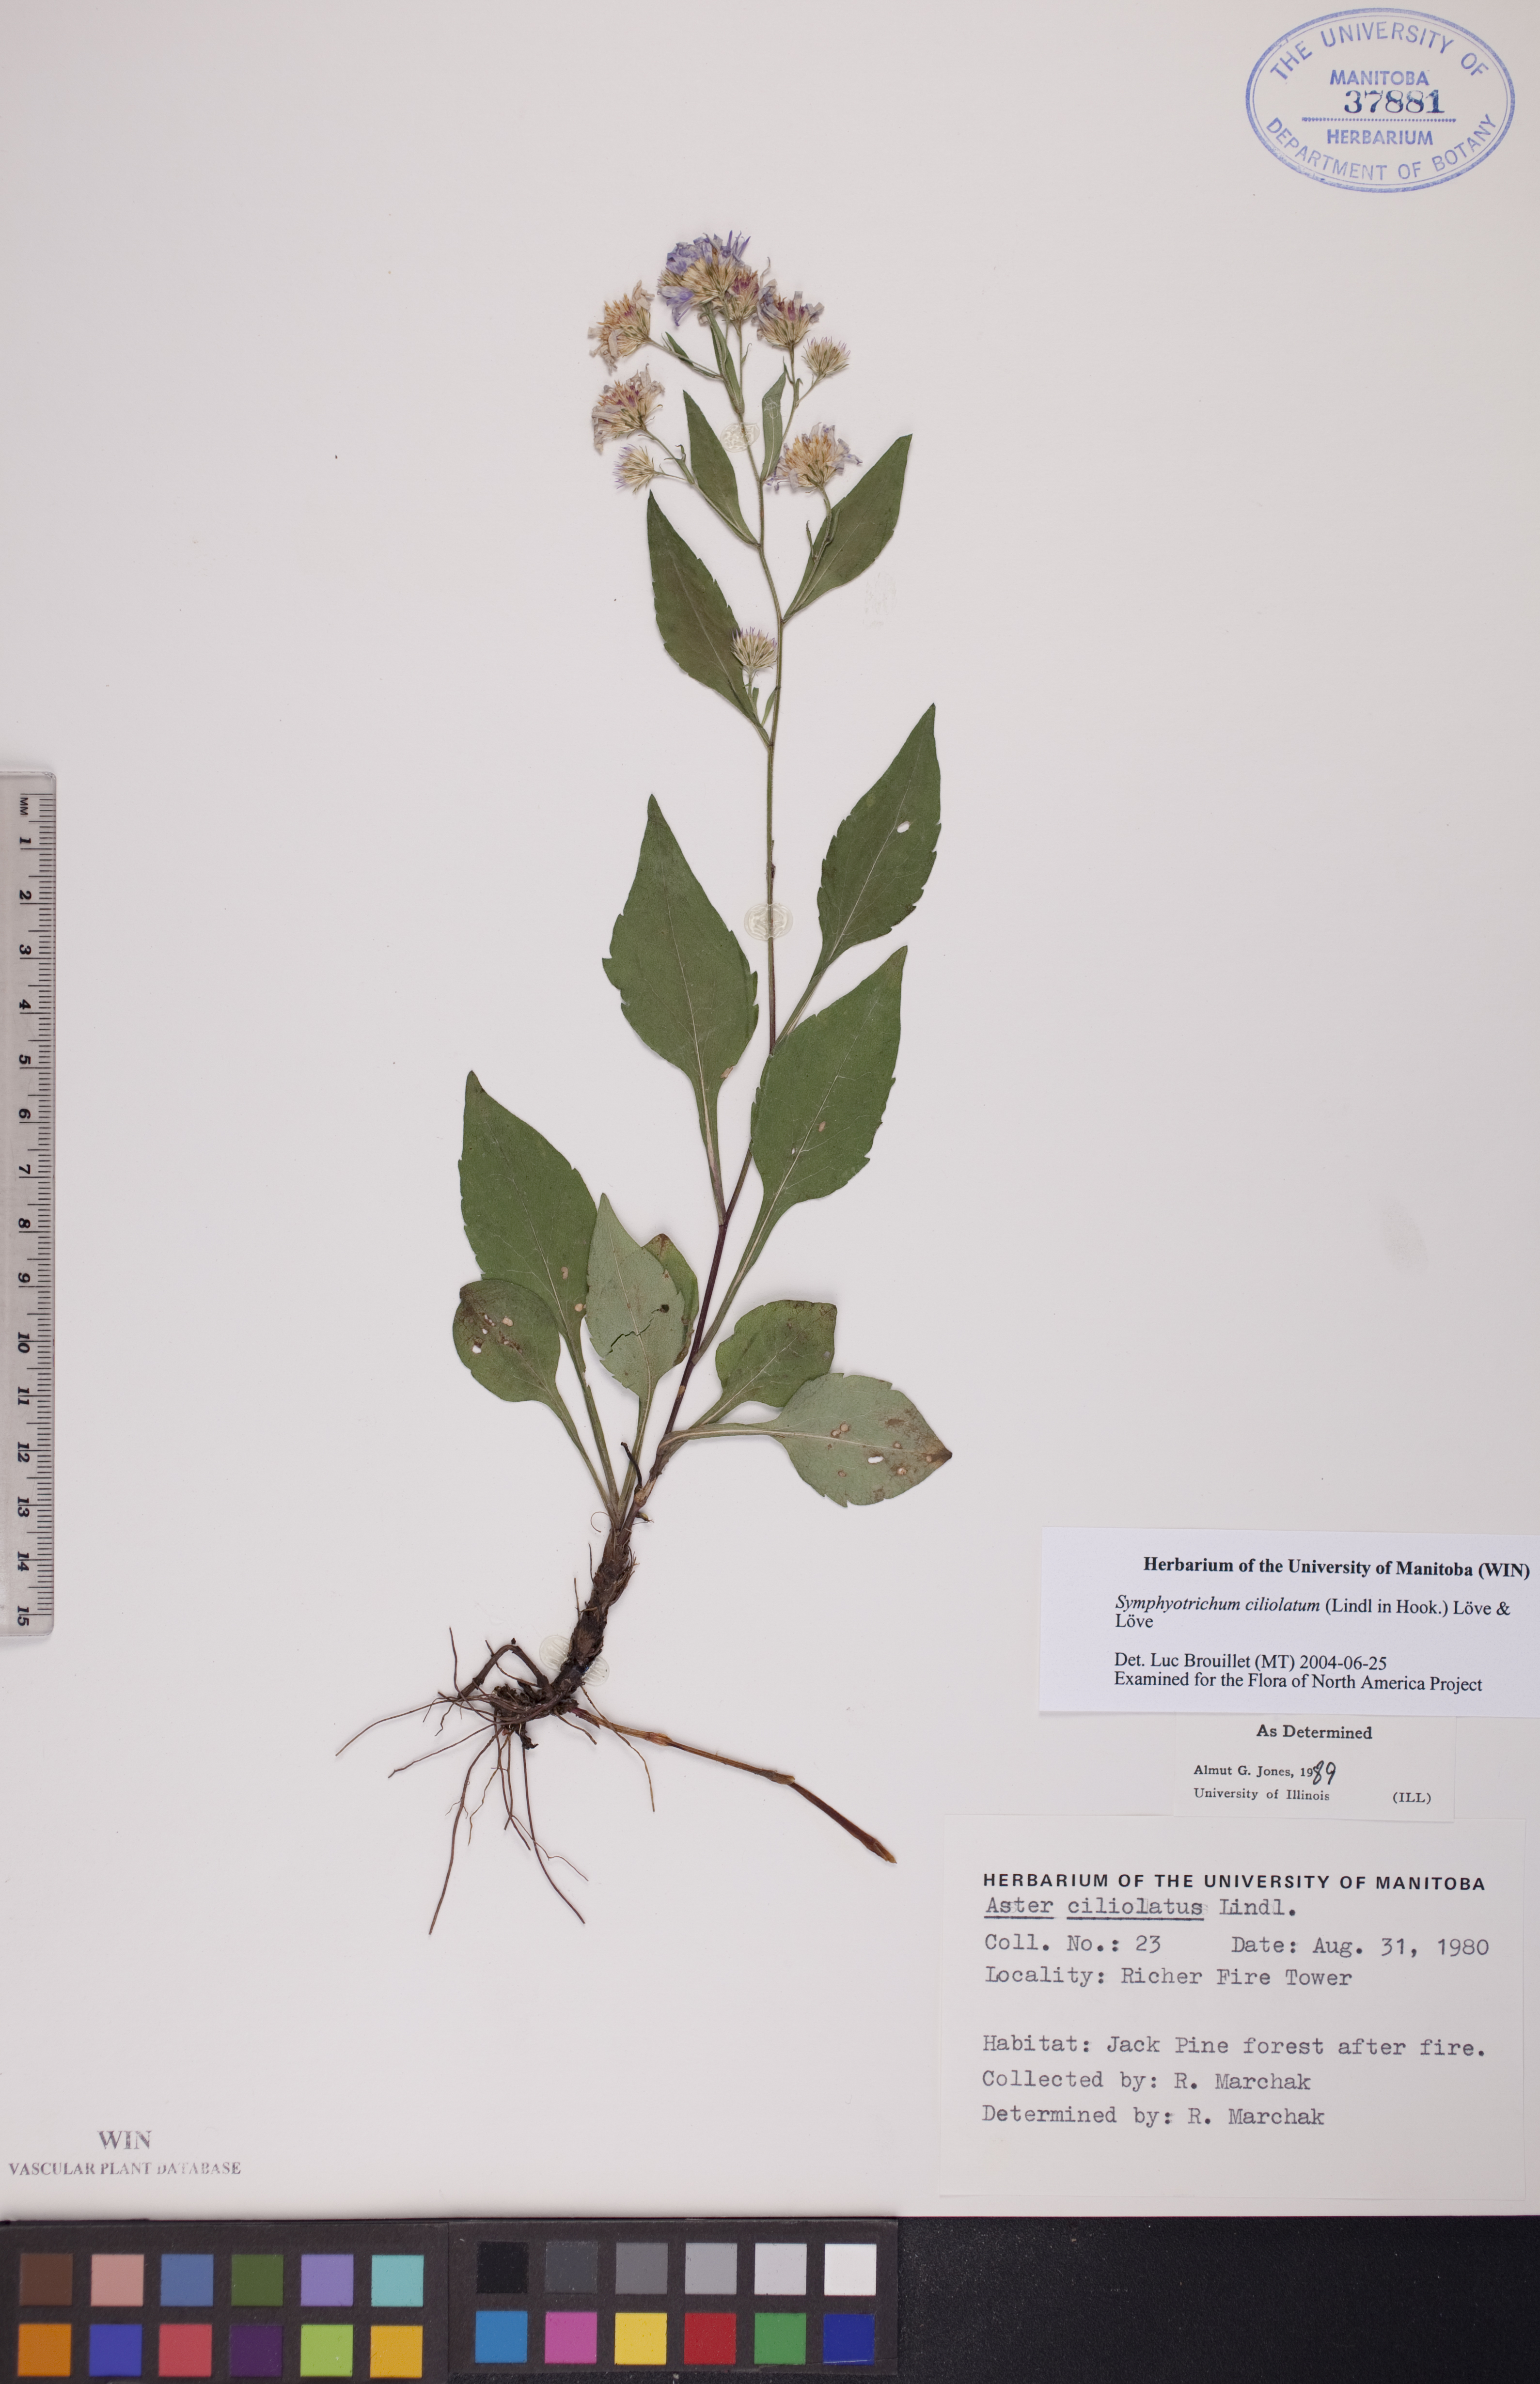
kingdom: Plantae
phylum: Tracheophyta
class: Magnoliopsida
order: Asterales
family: Asteraceae
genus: Symphyotrichum
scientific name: Symphyotrichum ciliolatum
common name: Fringed blue aster
